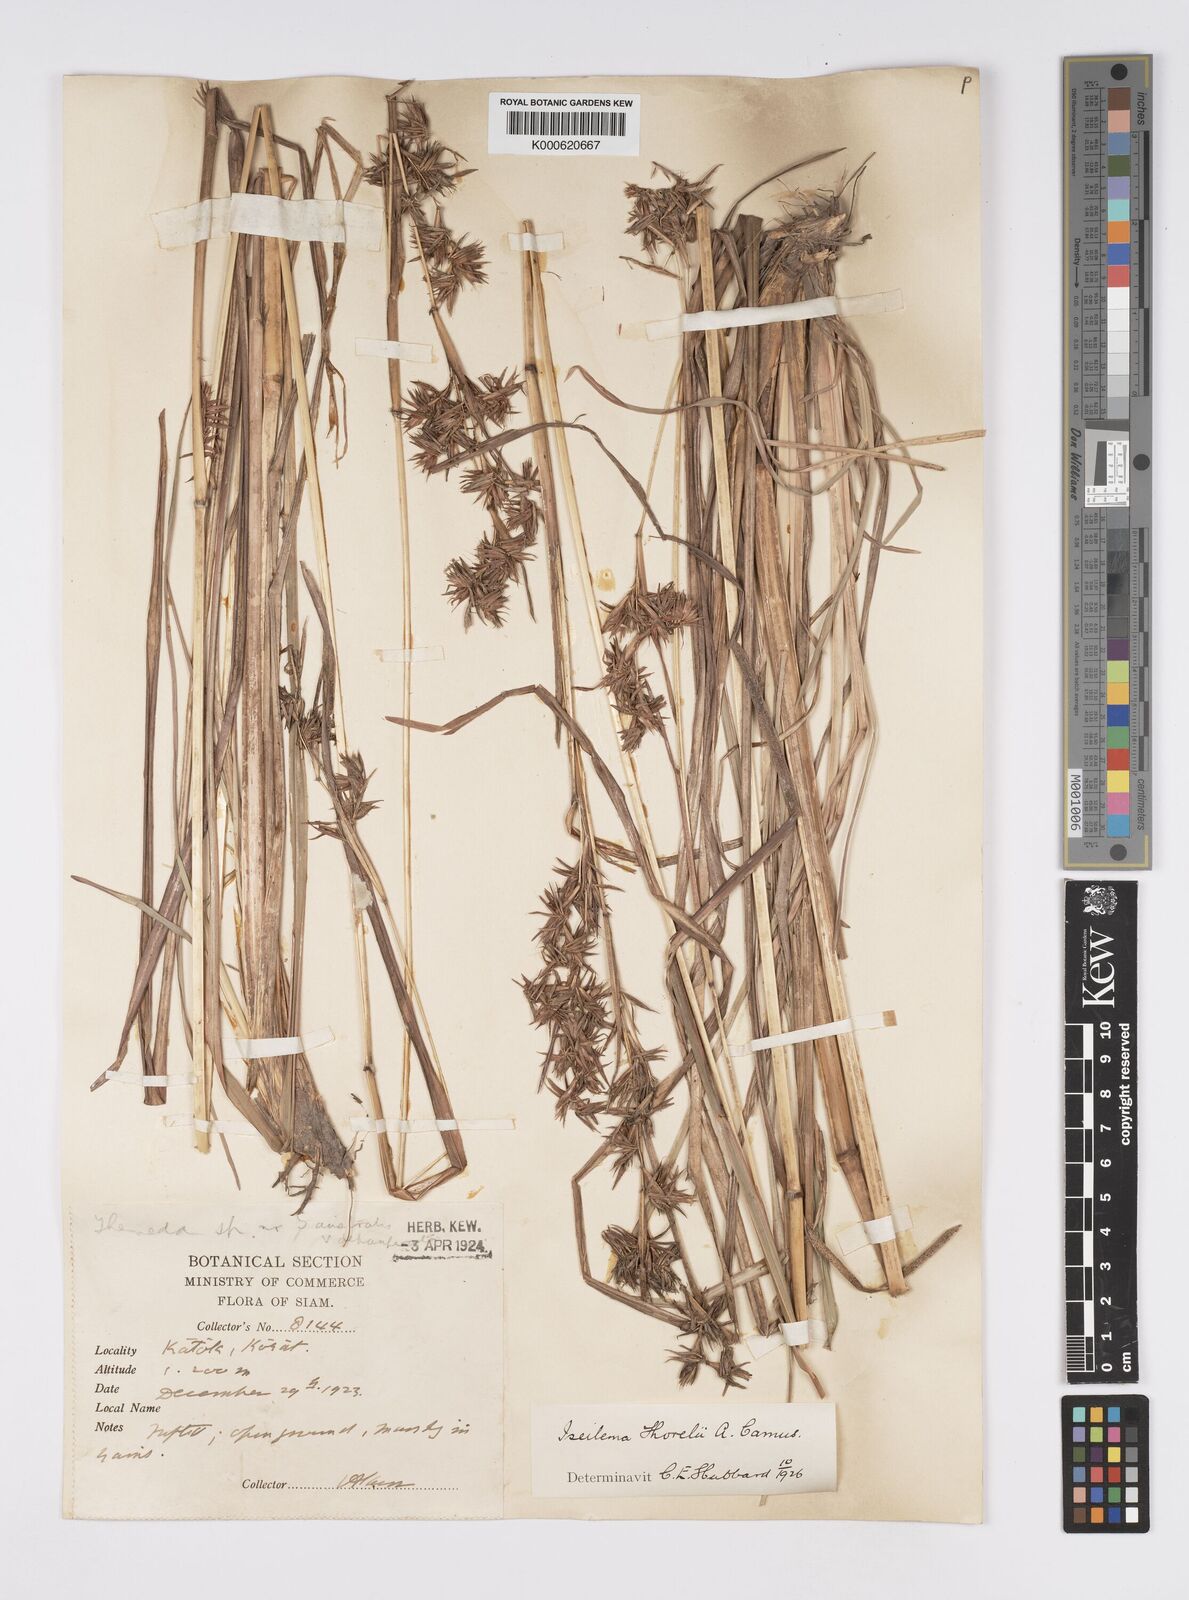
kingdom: Plantae
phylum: Tracheophyta
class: Liliopsida
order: Poales
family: Poaceae
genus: Iseilema
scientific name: Iseilema thorelii
